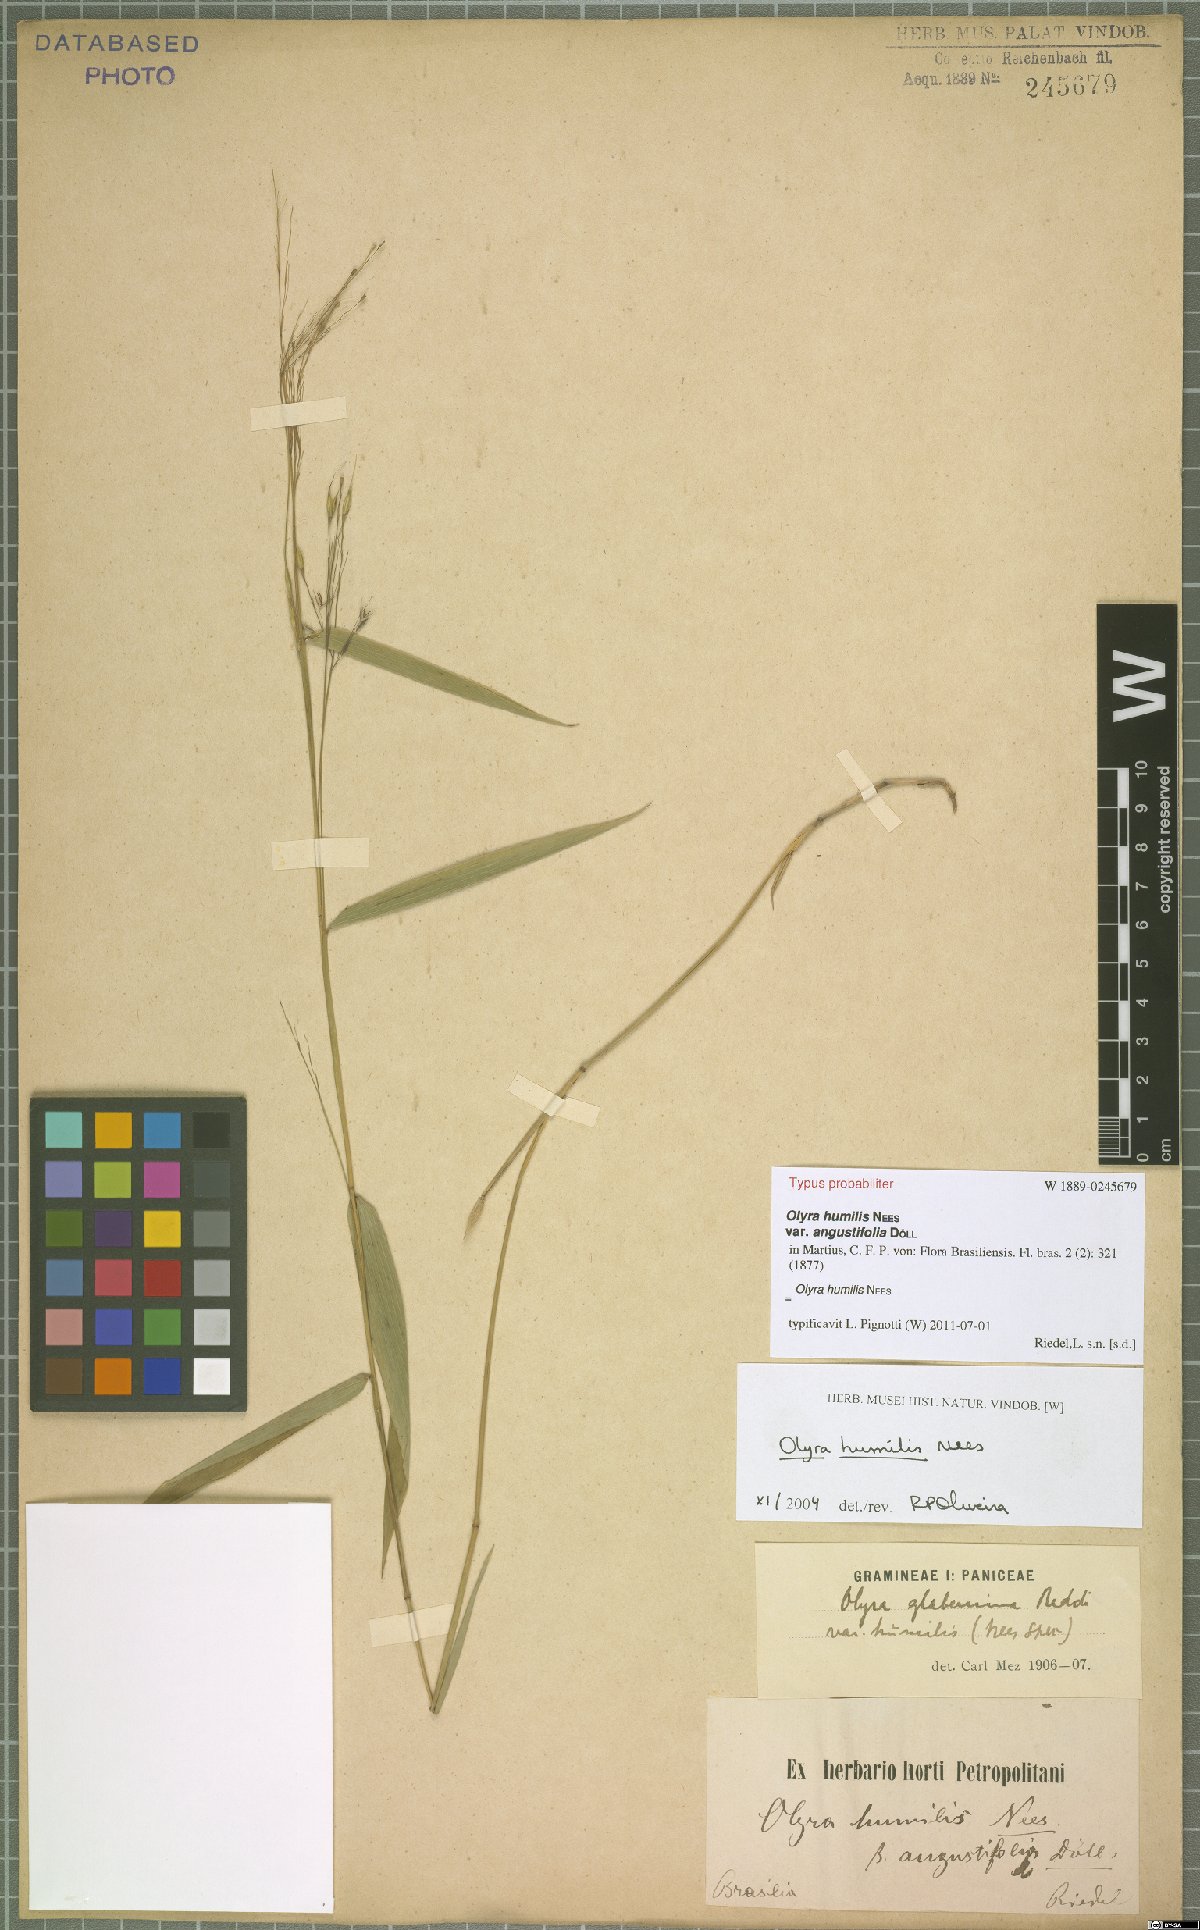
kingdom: Plantae
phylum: Tracheophyta
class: Liliopsida
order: Poales
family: Poaceae
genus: Olyra
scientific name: Olyra humilis
